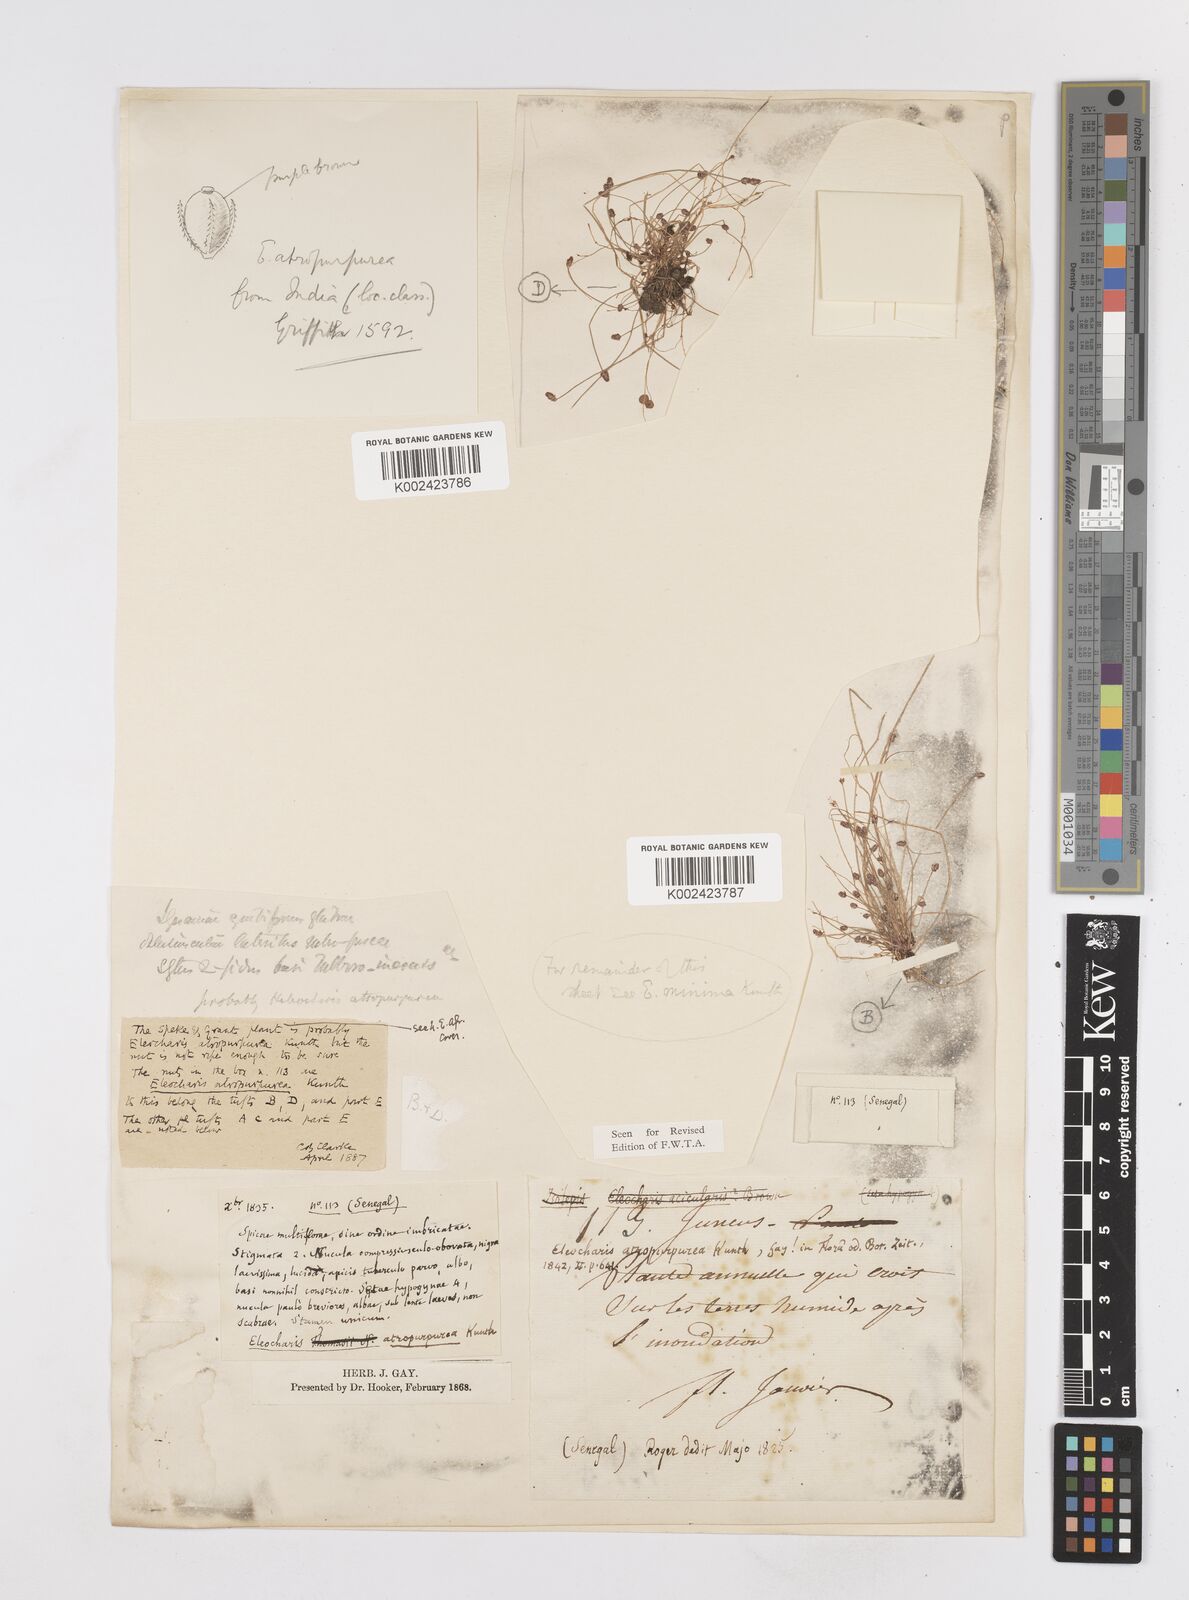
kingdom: Plantae
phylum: Tracheophyta
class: Liliopsida
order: Poales
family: Cyperaceae
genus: Eleocharis
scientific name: Eleocharis atropurpurea
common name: Purple spikerush
